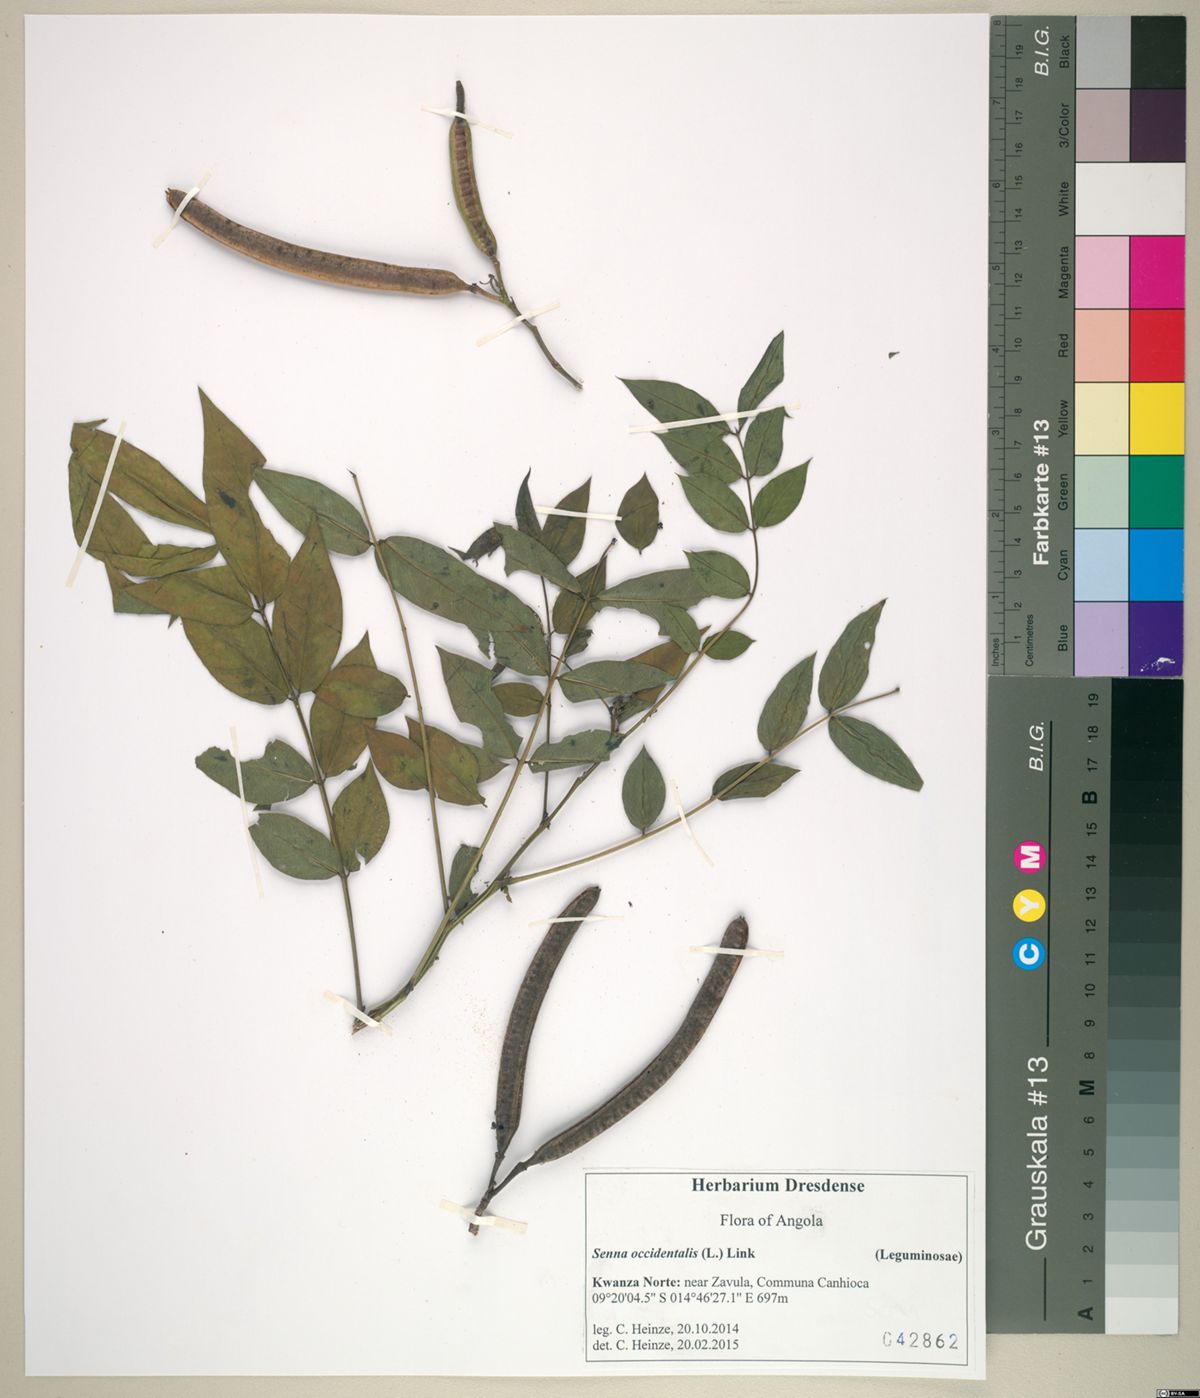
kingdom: Plantae
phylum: Tracheophyta
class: Magnoliopsida
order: Fabales
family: Fabaceae
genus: Senna
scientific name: Senna occidentalis
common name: Septicweed
